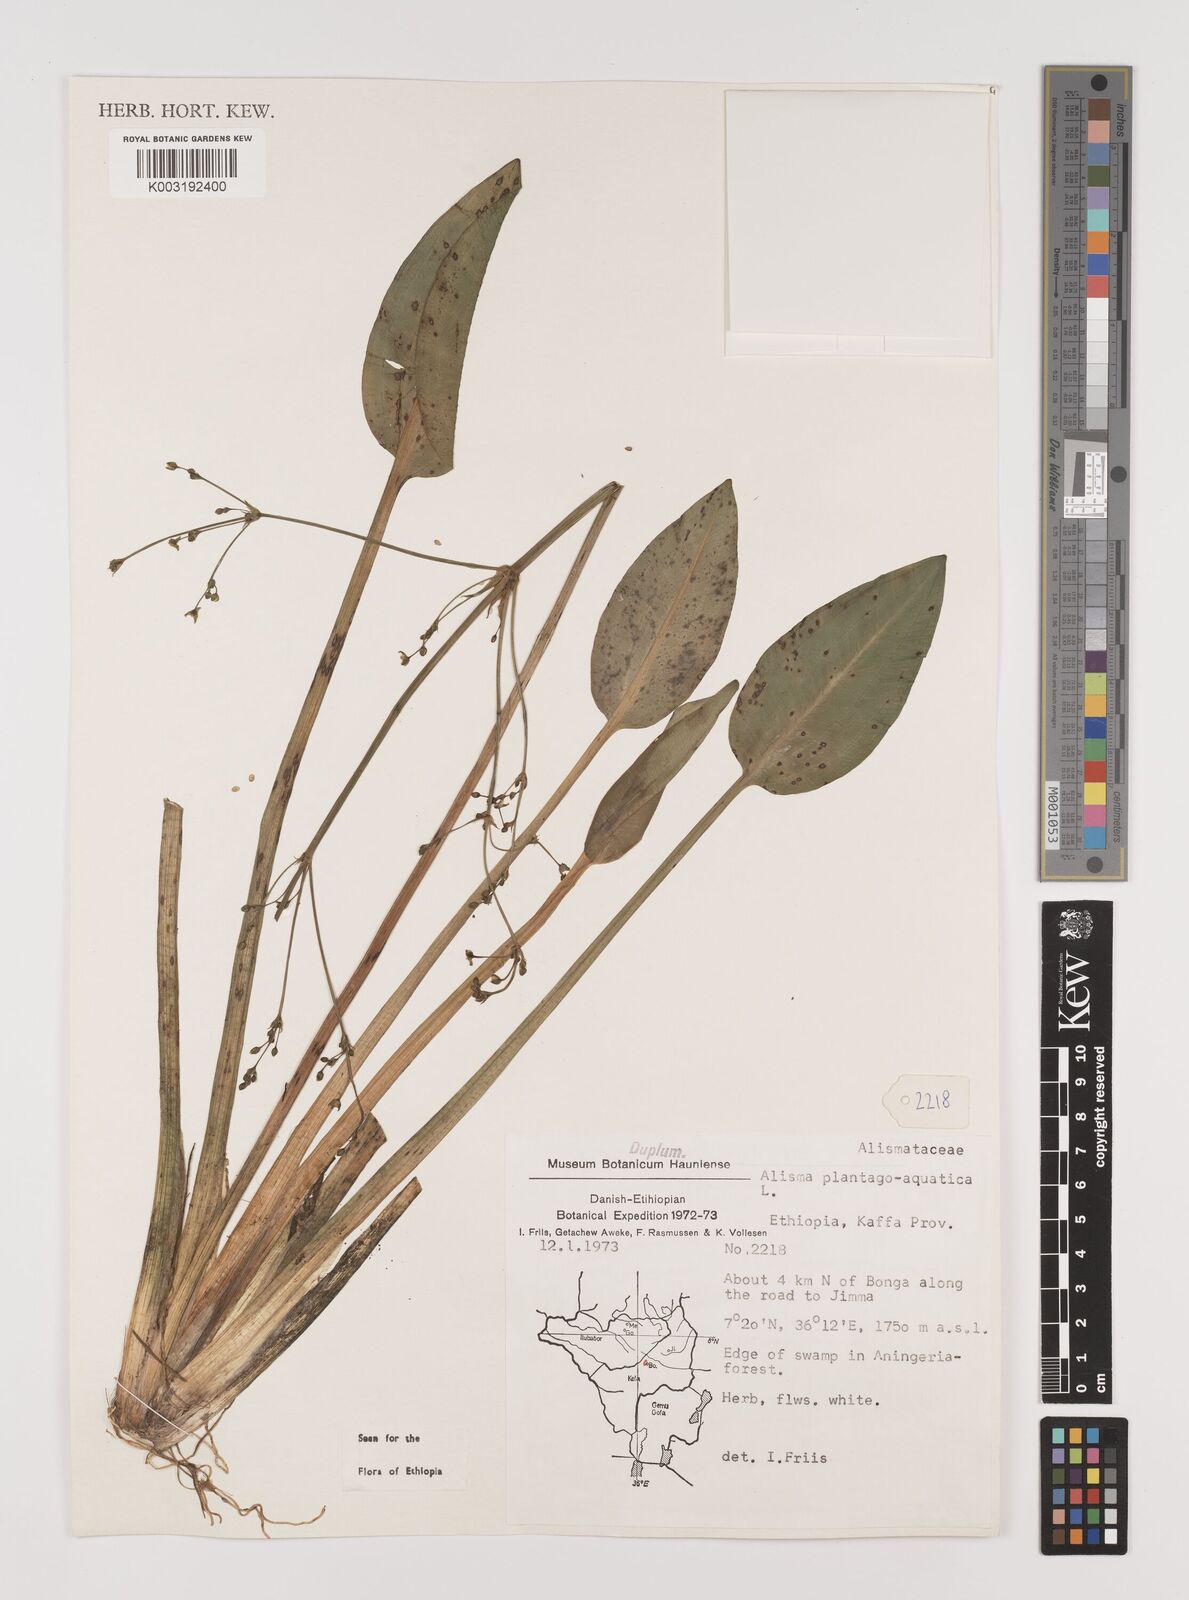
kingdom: Plantae
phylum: Tracheophyta
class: Liliopsida
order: Alismatales
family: Alismataceae
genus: Alisma
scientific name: Alisma plantago-aquatica
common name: Water-plantain
